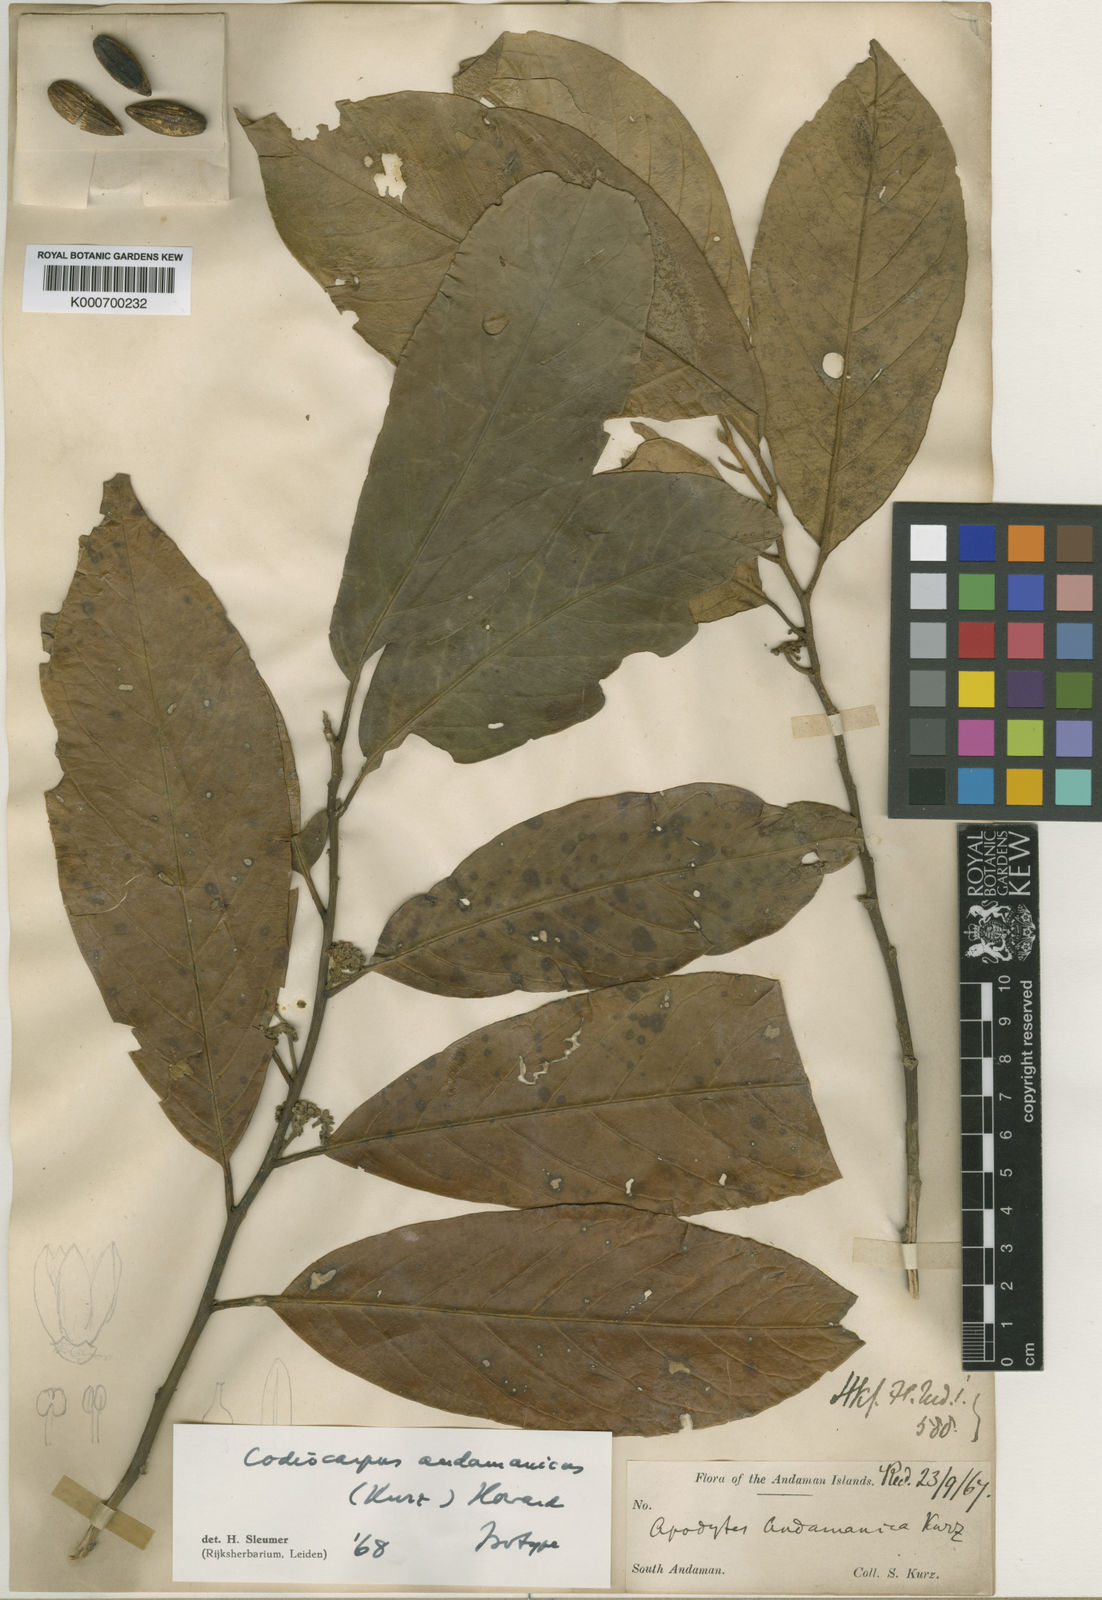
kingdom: Plantae
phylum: Tracheophyta
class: Magnoliopsida
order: Cardiopteridales
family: Stemonuraceae
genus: Codiocarpus
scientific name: Codiocarpus andamanicus
